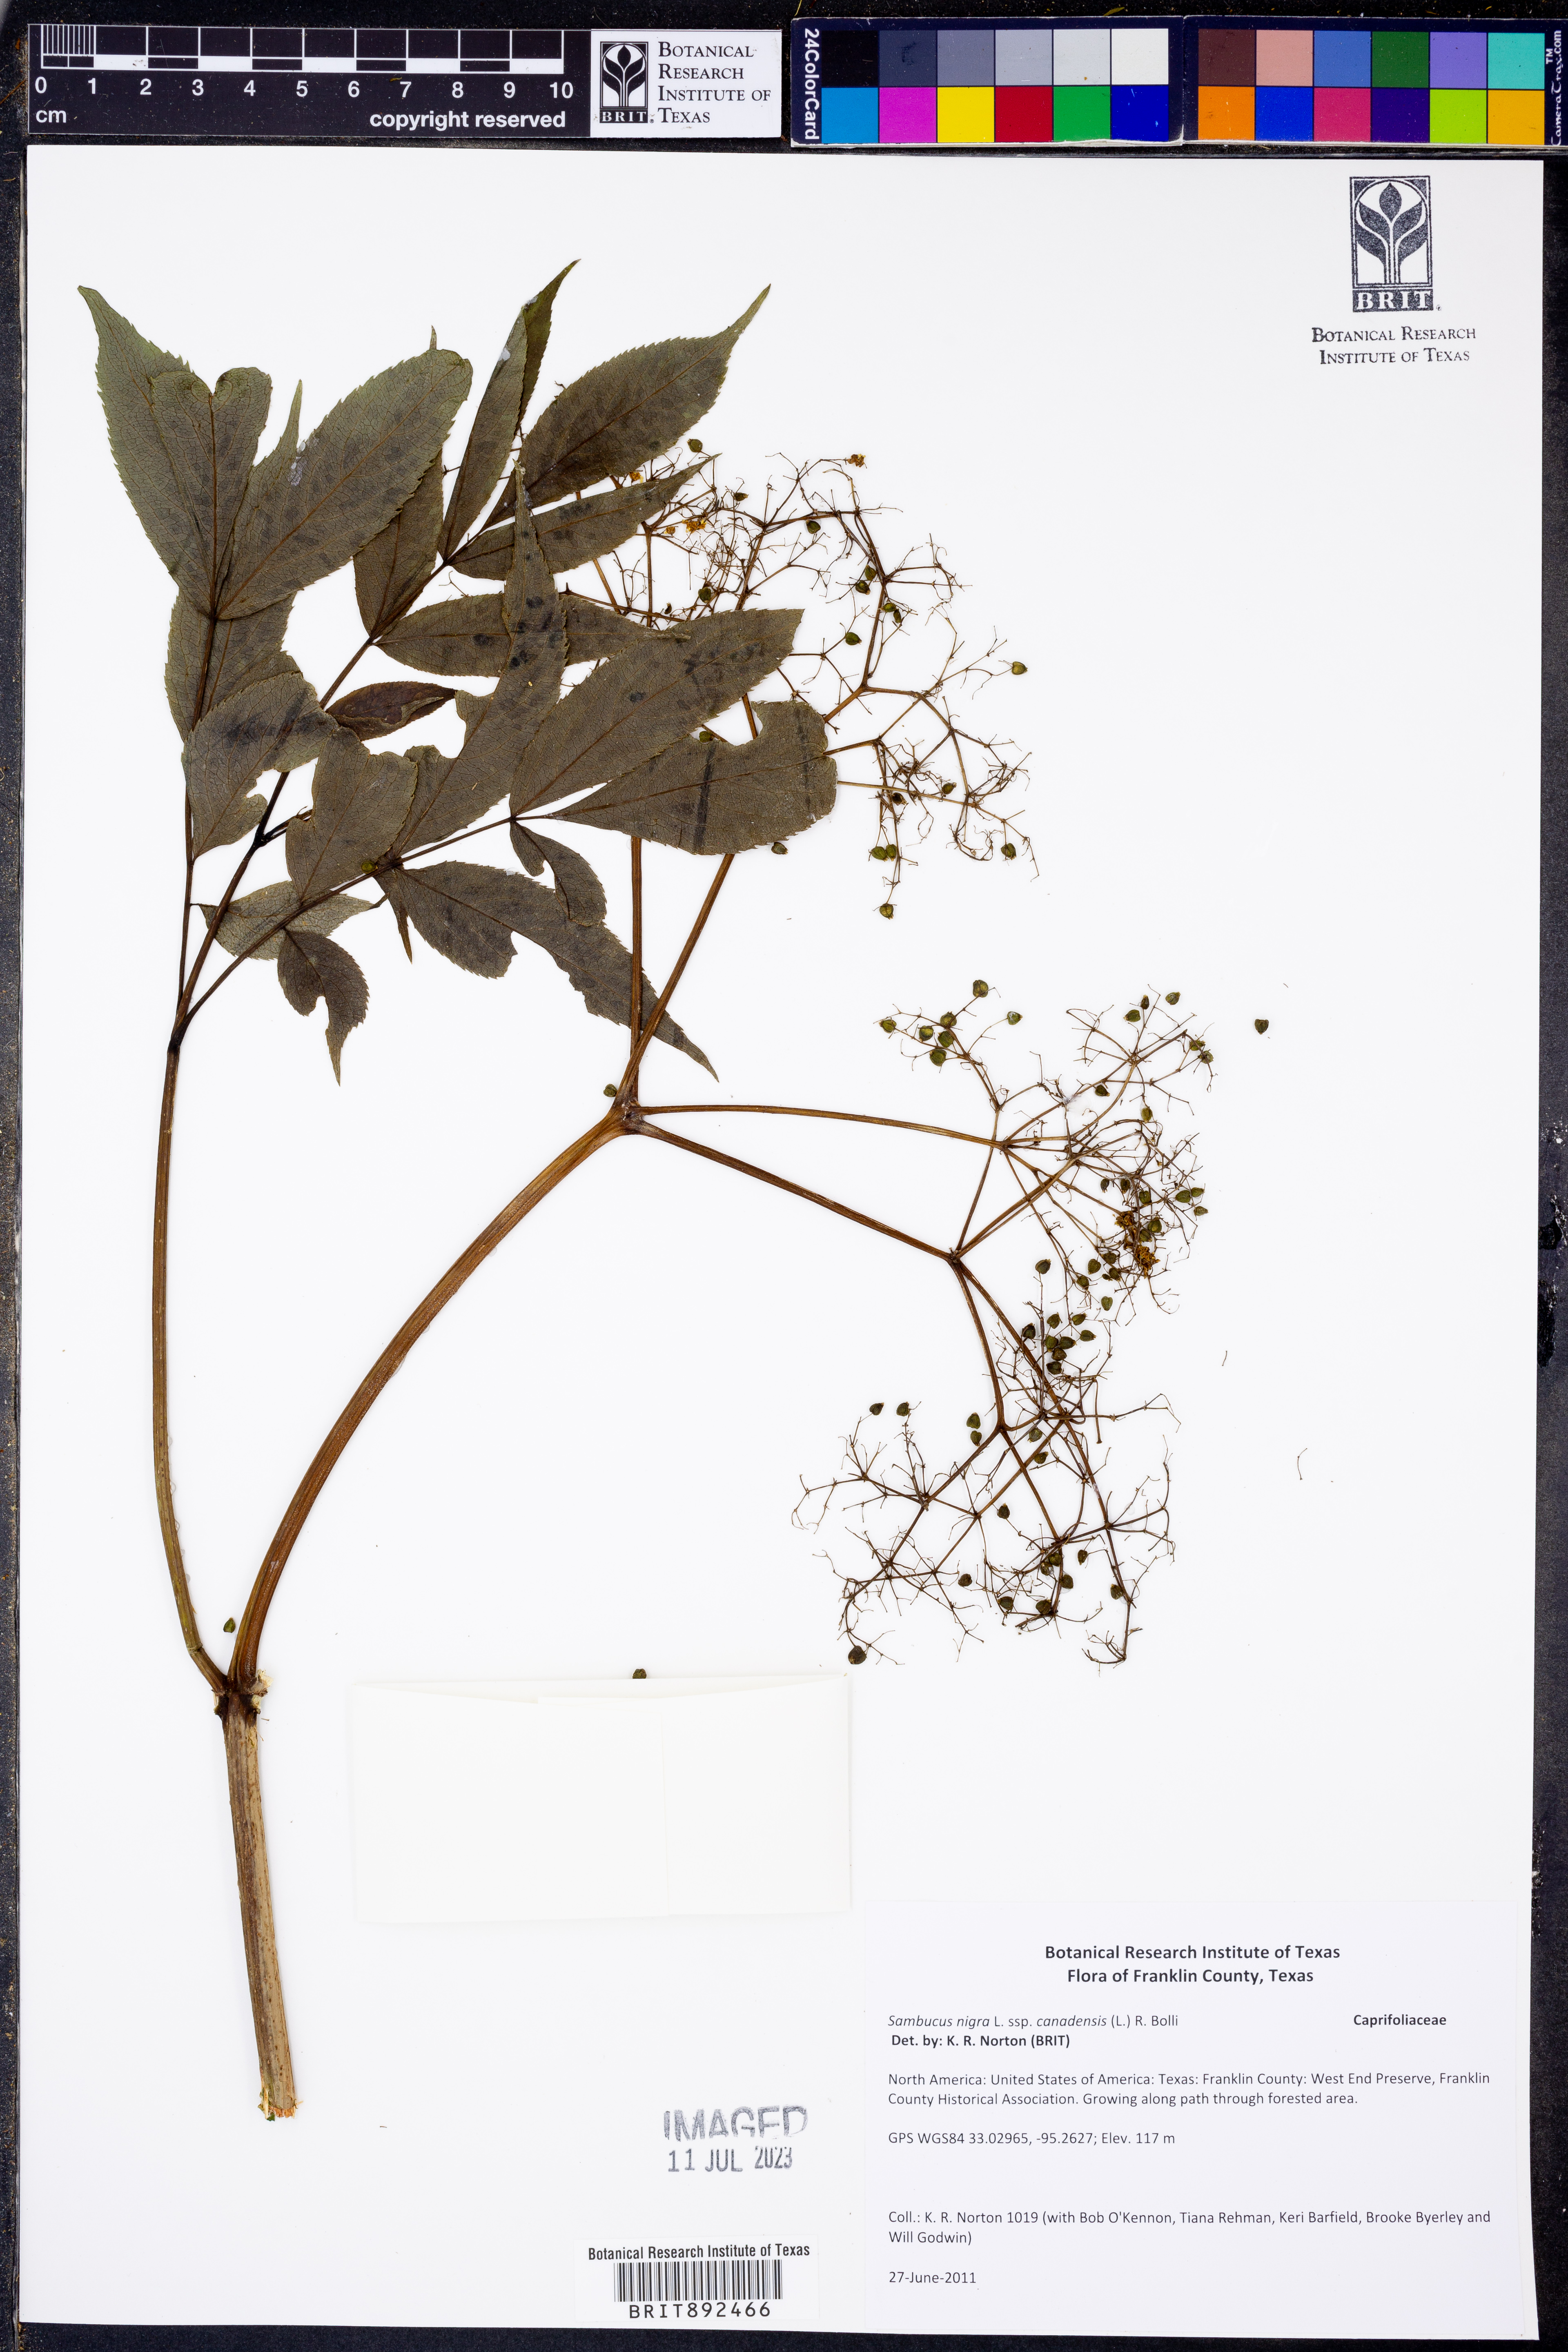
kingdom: Plantae
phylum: Tracheophyta
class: Magnoliopsida
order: Dipsacales
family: Viburnaceae
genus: Sambucus
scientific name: Sambucus canadensis
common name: American elder
